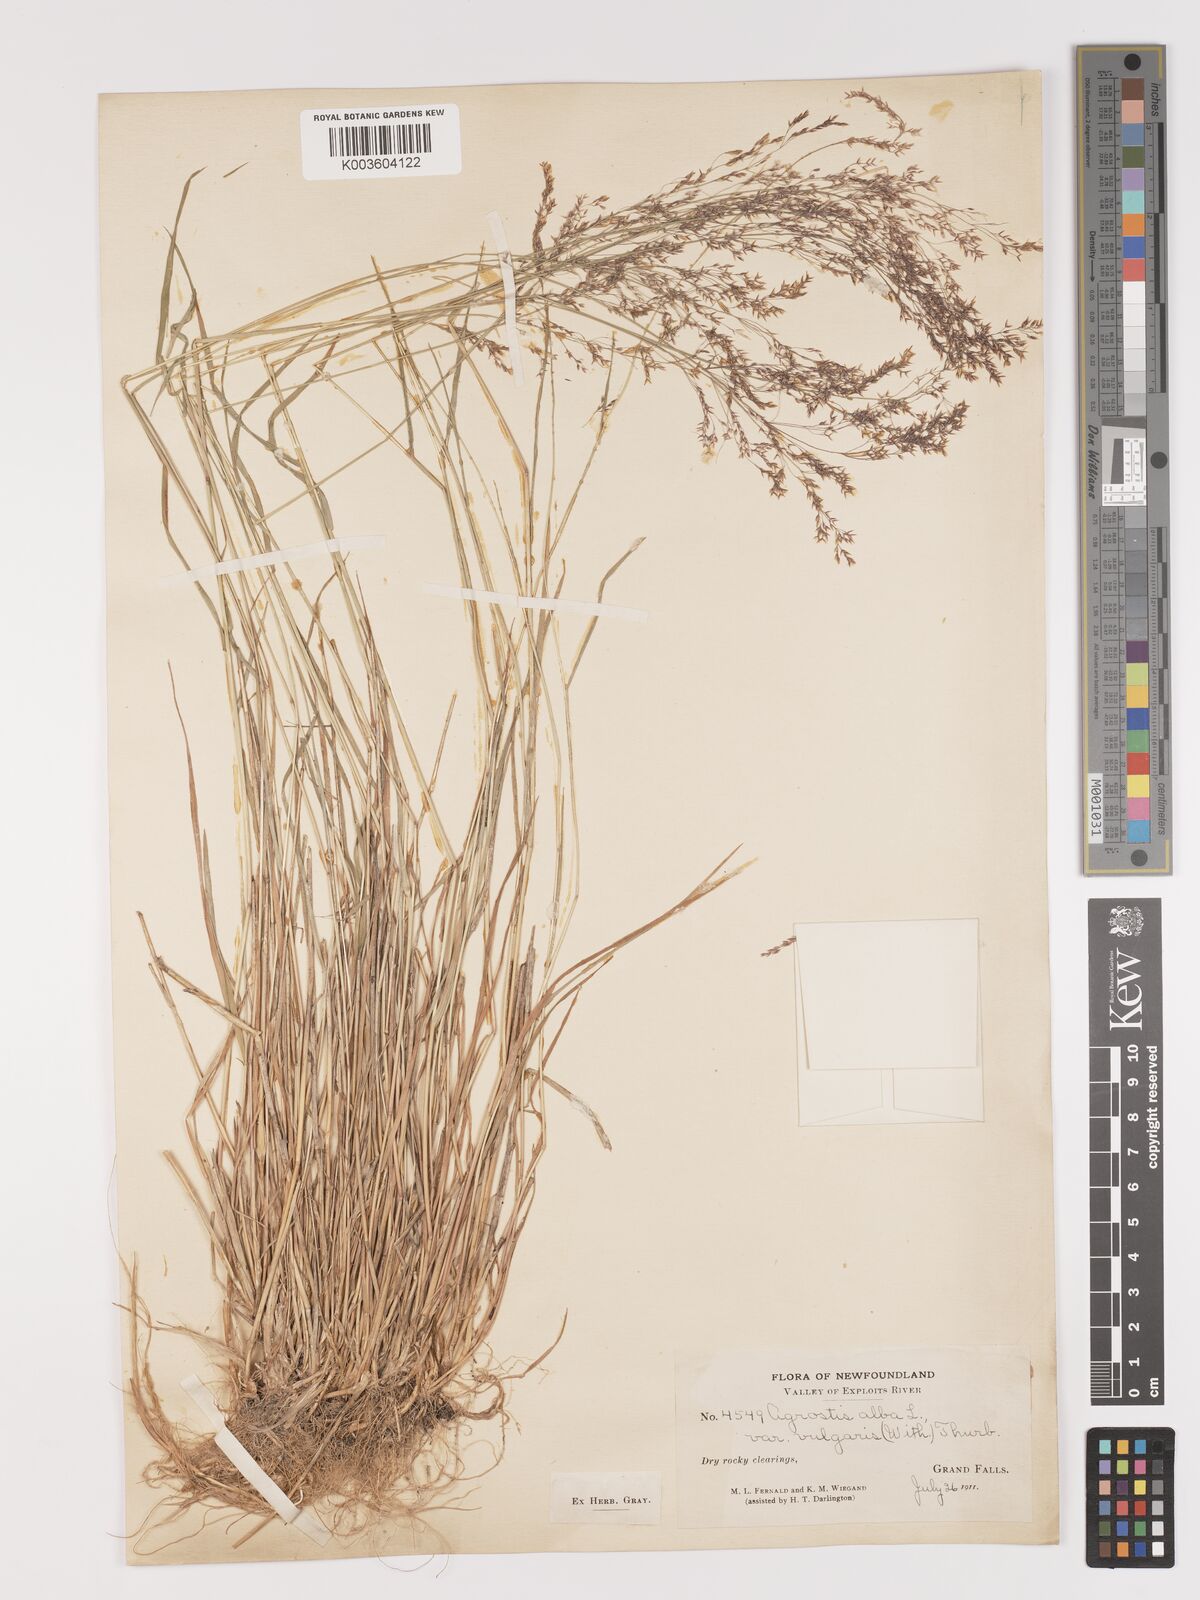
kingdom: Plantae
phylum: Tracheophyta
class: Liliopsida
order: Poales
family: Poaceae
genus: Agrostis
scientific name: Agrostis capillaris
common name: Colonial bentgrass
